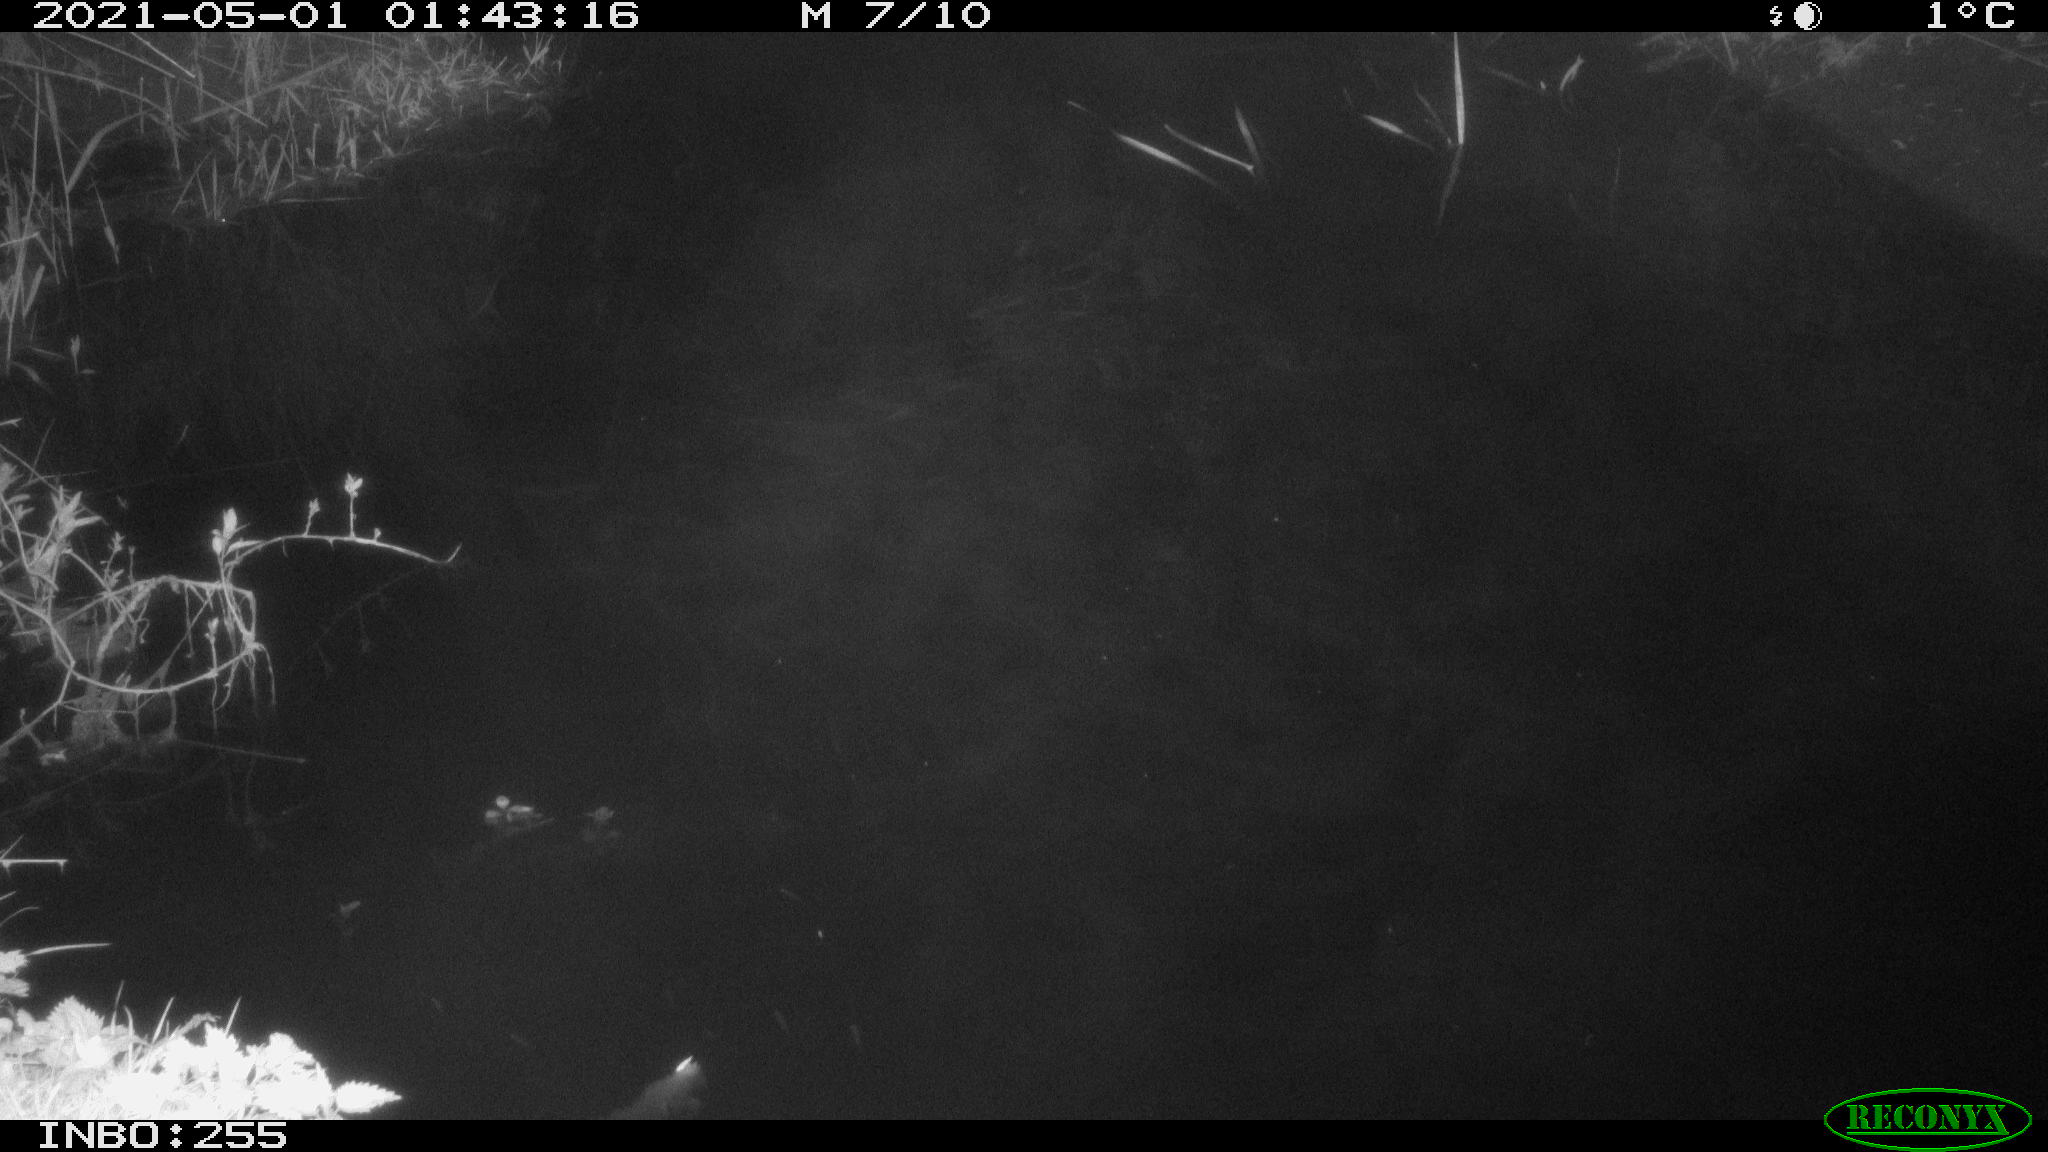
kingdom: Animalia
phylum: Chordata
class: Aves
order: Anseriformes
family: Anatidae
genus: Anas
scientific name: Anas platyrhynchos
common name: Mallard
